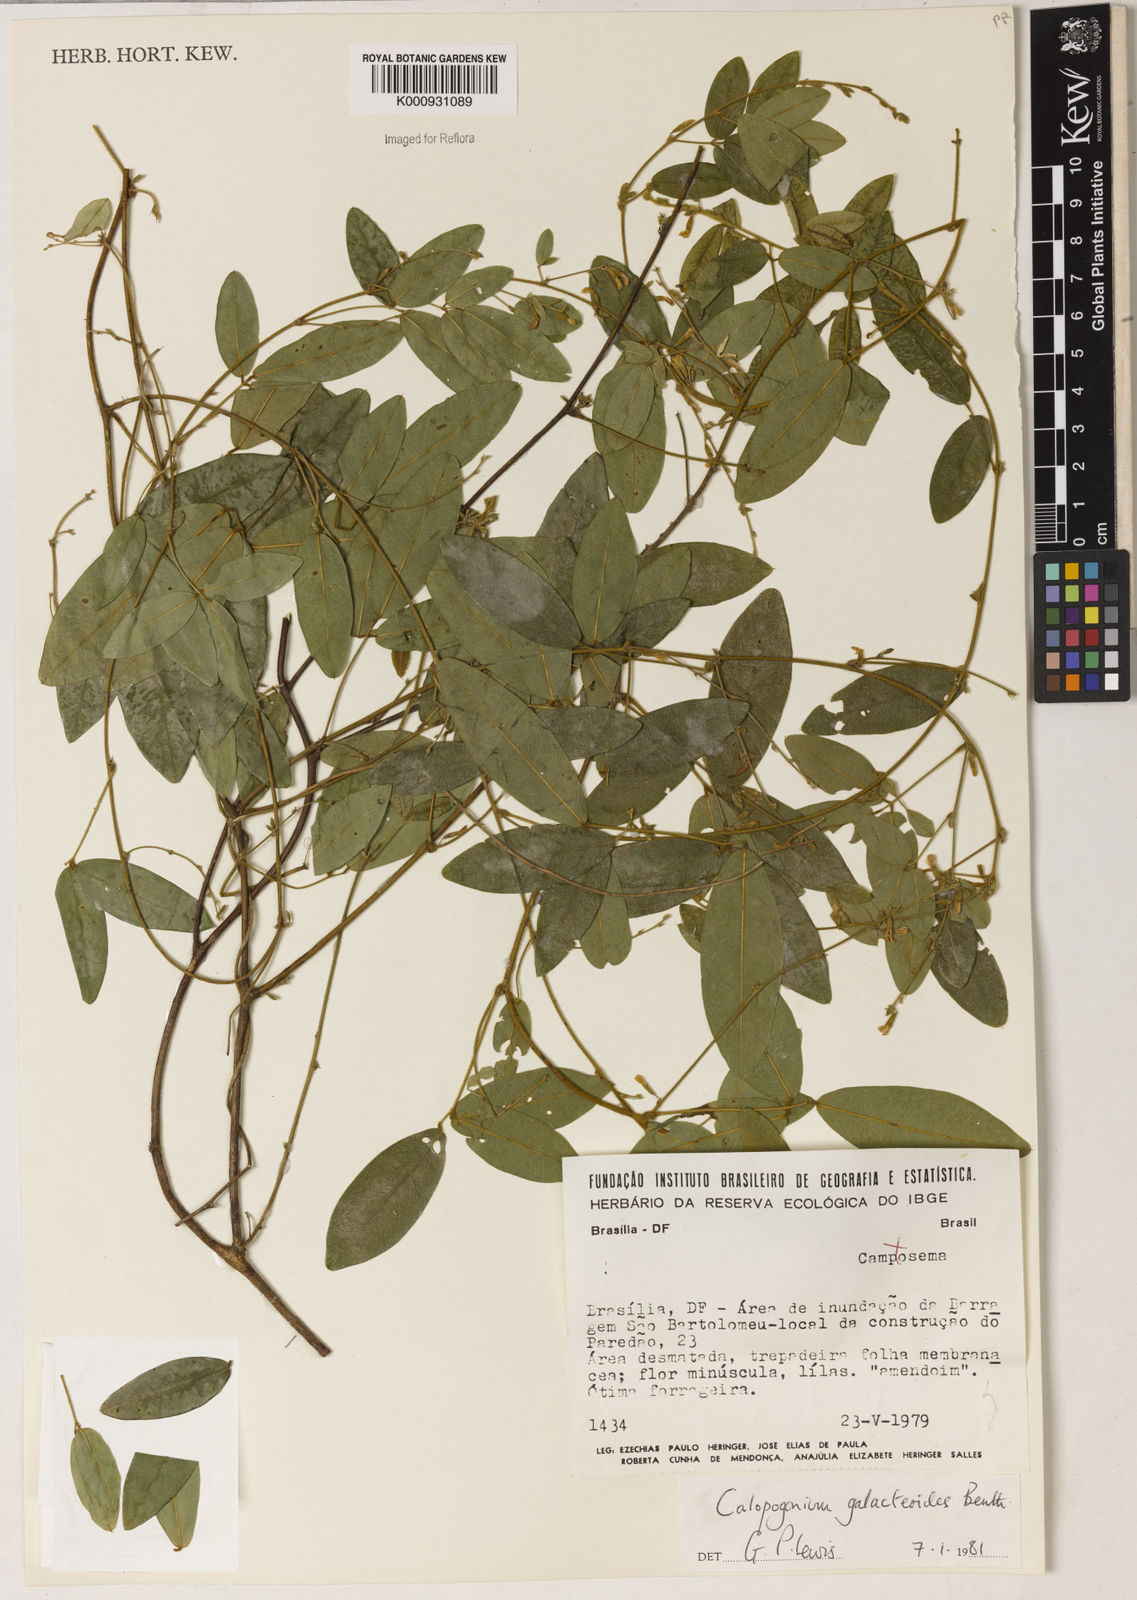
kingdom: Plantae
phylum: Tracheophyta
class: Magnoliopsida
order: Fabales
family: Fabaceae
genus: Calopogonium
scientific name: Calopogonium galactioides
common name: Legume
